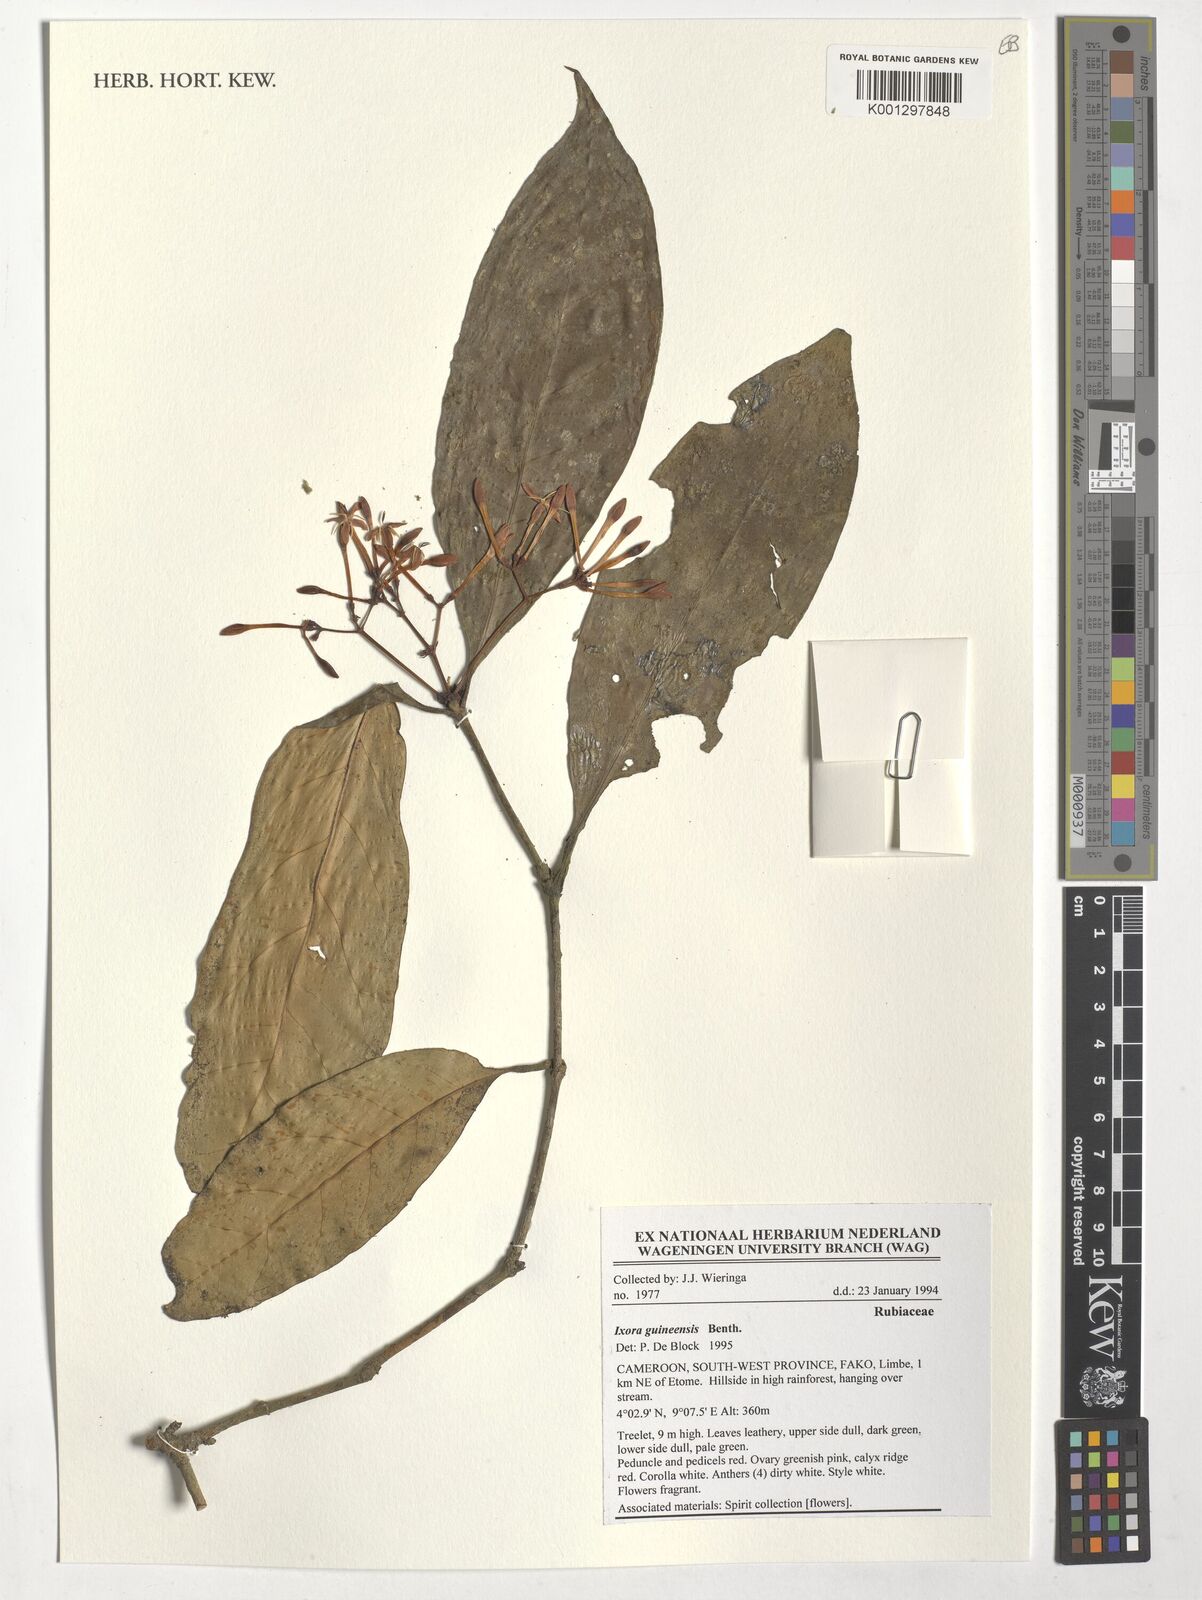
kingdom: Plantae
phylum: Tracheophyta
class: Magnoliopsida
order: Gentianales
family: Rubiaceae
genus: Ixora
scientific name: Ixora guineensis
